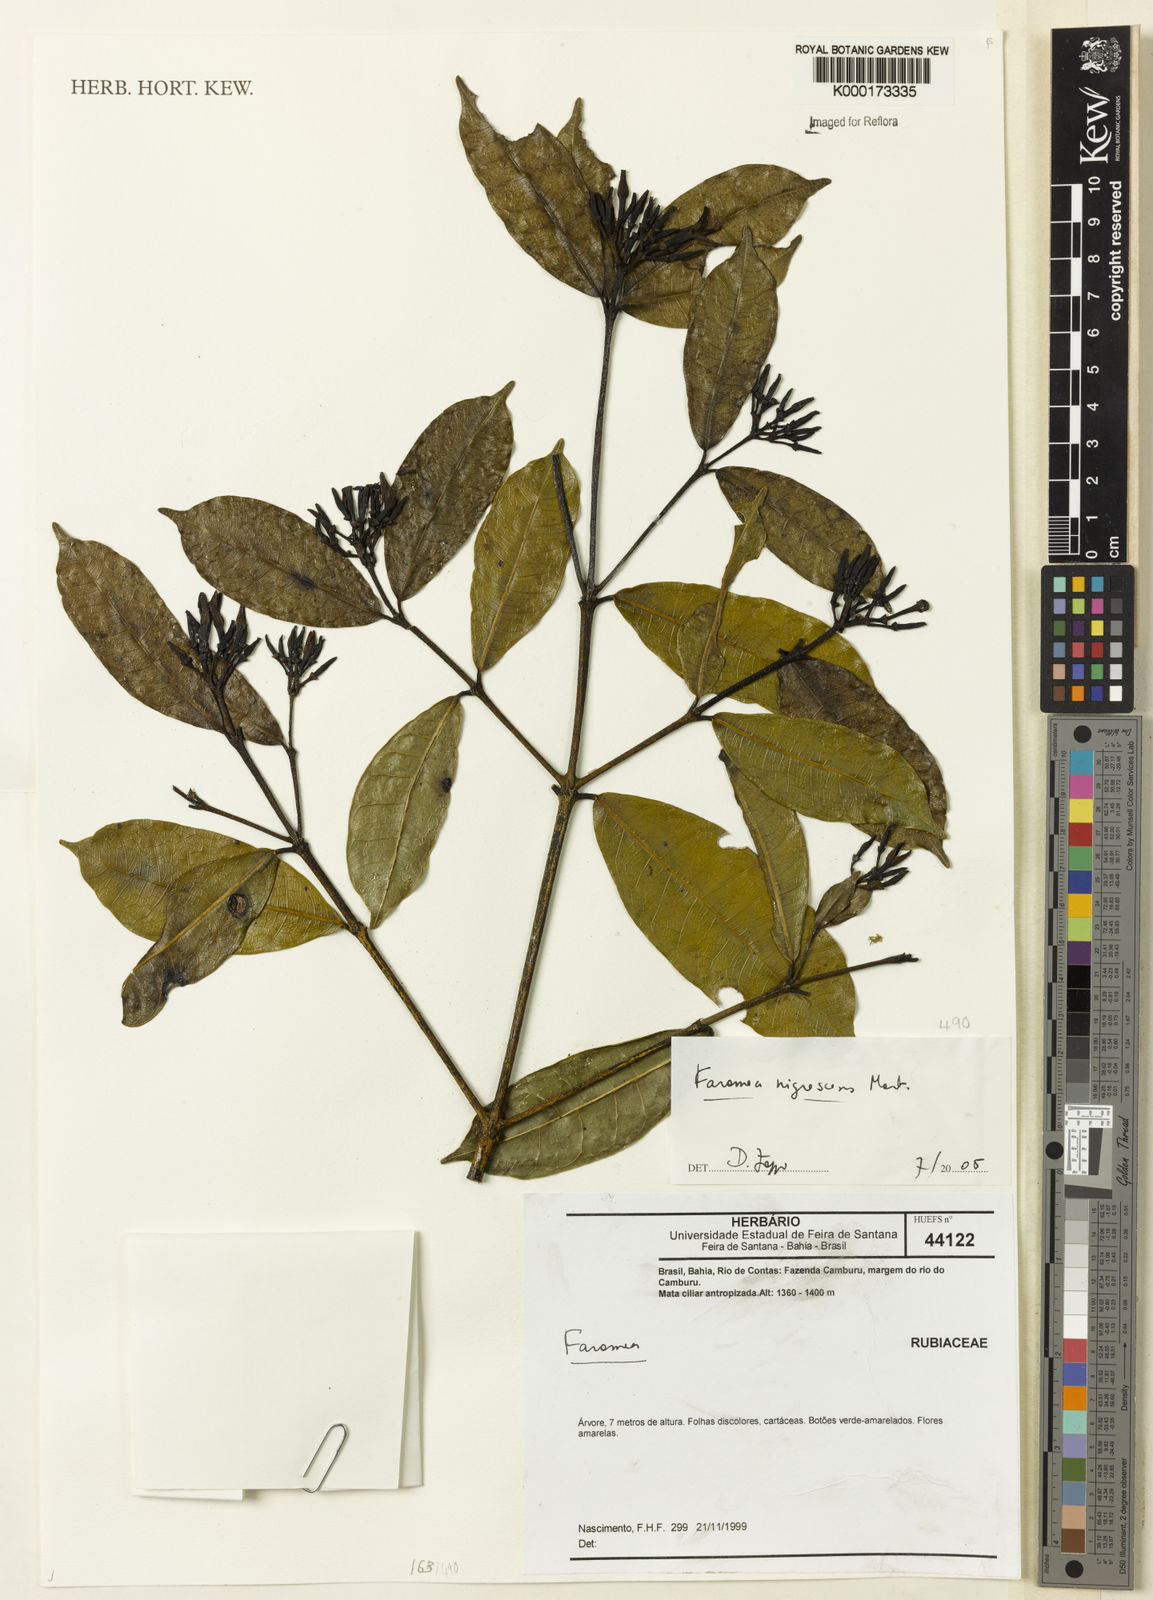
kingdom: Plantae
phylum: Tracheophyta
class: Magnoliopsida
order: Gentianales
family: Rubiaceae
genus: Faramea
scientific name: Faramea nigrescens
